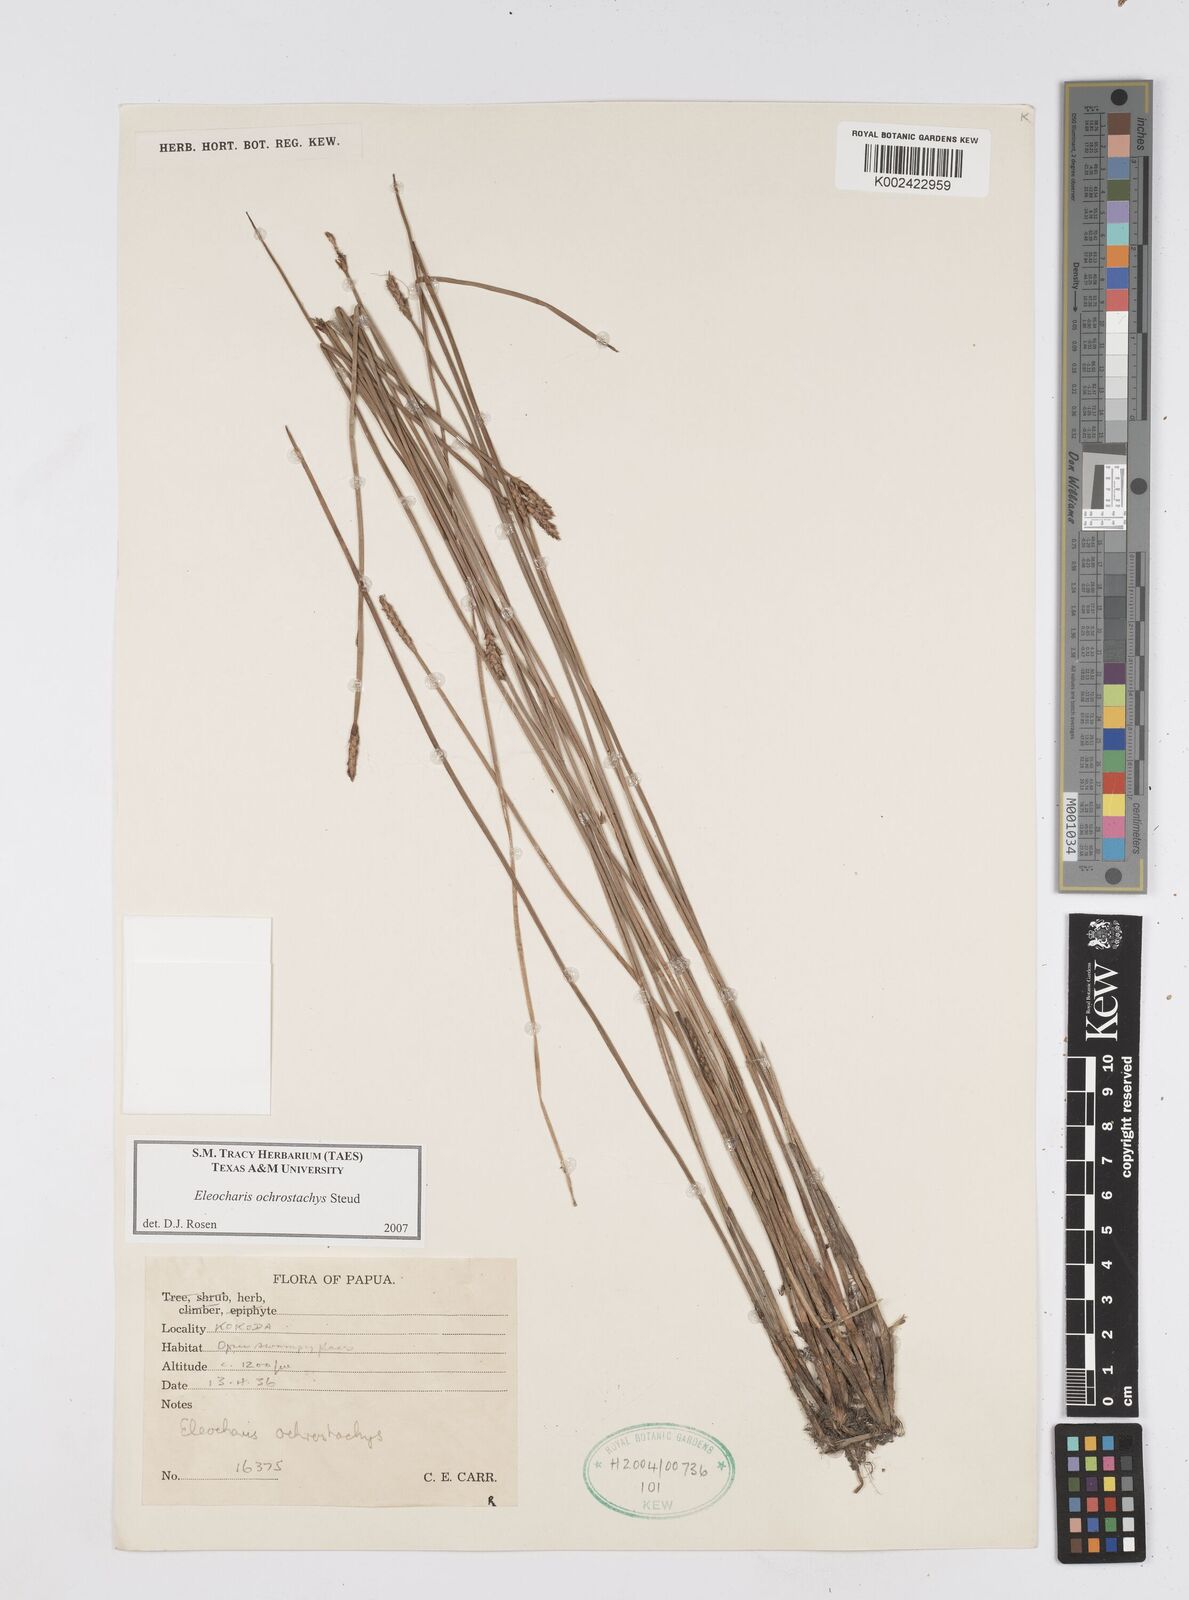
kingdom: Plantae
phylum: Tracheophyta
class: Liliopsida
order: Poales
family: Cyperaceae
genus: Eleocharis
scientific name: Eleocharis ochrostachys
